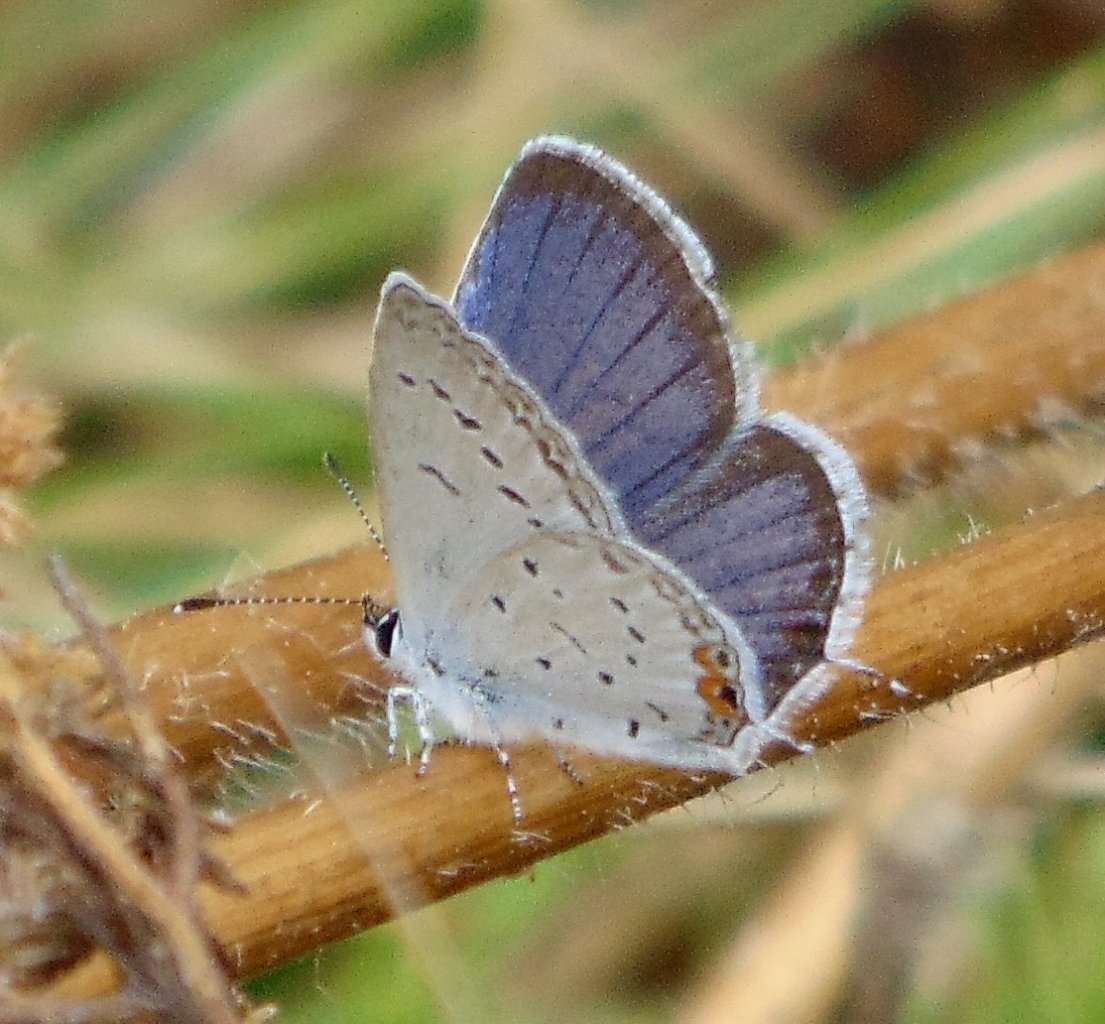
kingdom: Animalia
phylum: Arthropoda
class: Insecta
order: Lepidoptera
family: Lycaenidae
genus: Elkalyce
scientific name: Elkalyce comyntas
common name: Eastern Tailed-Blue
